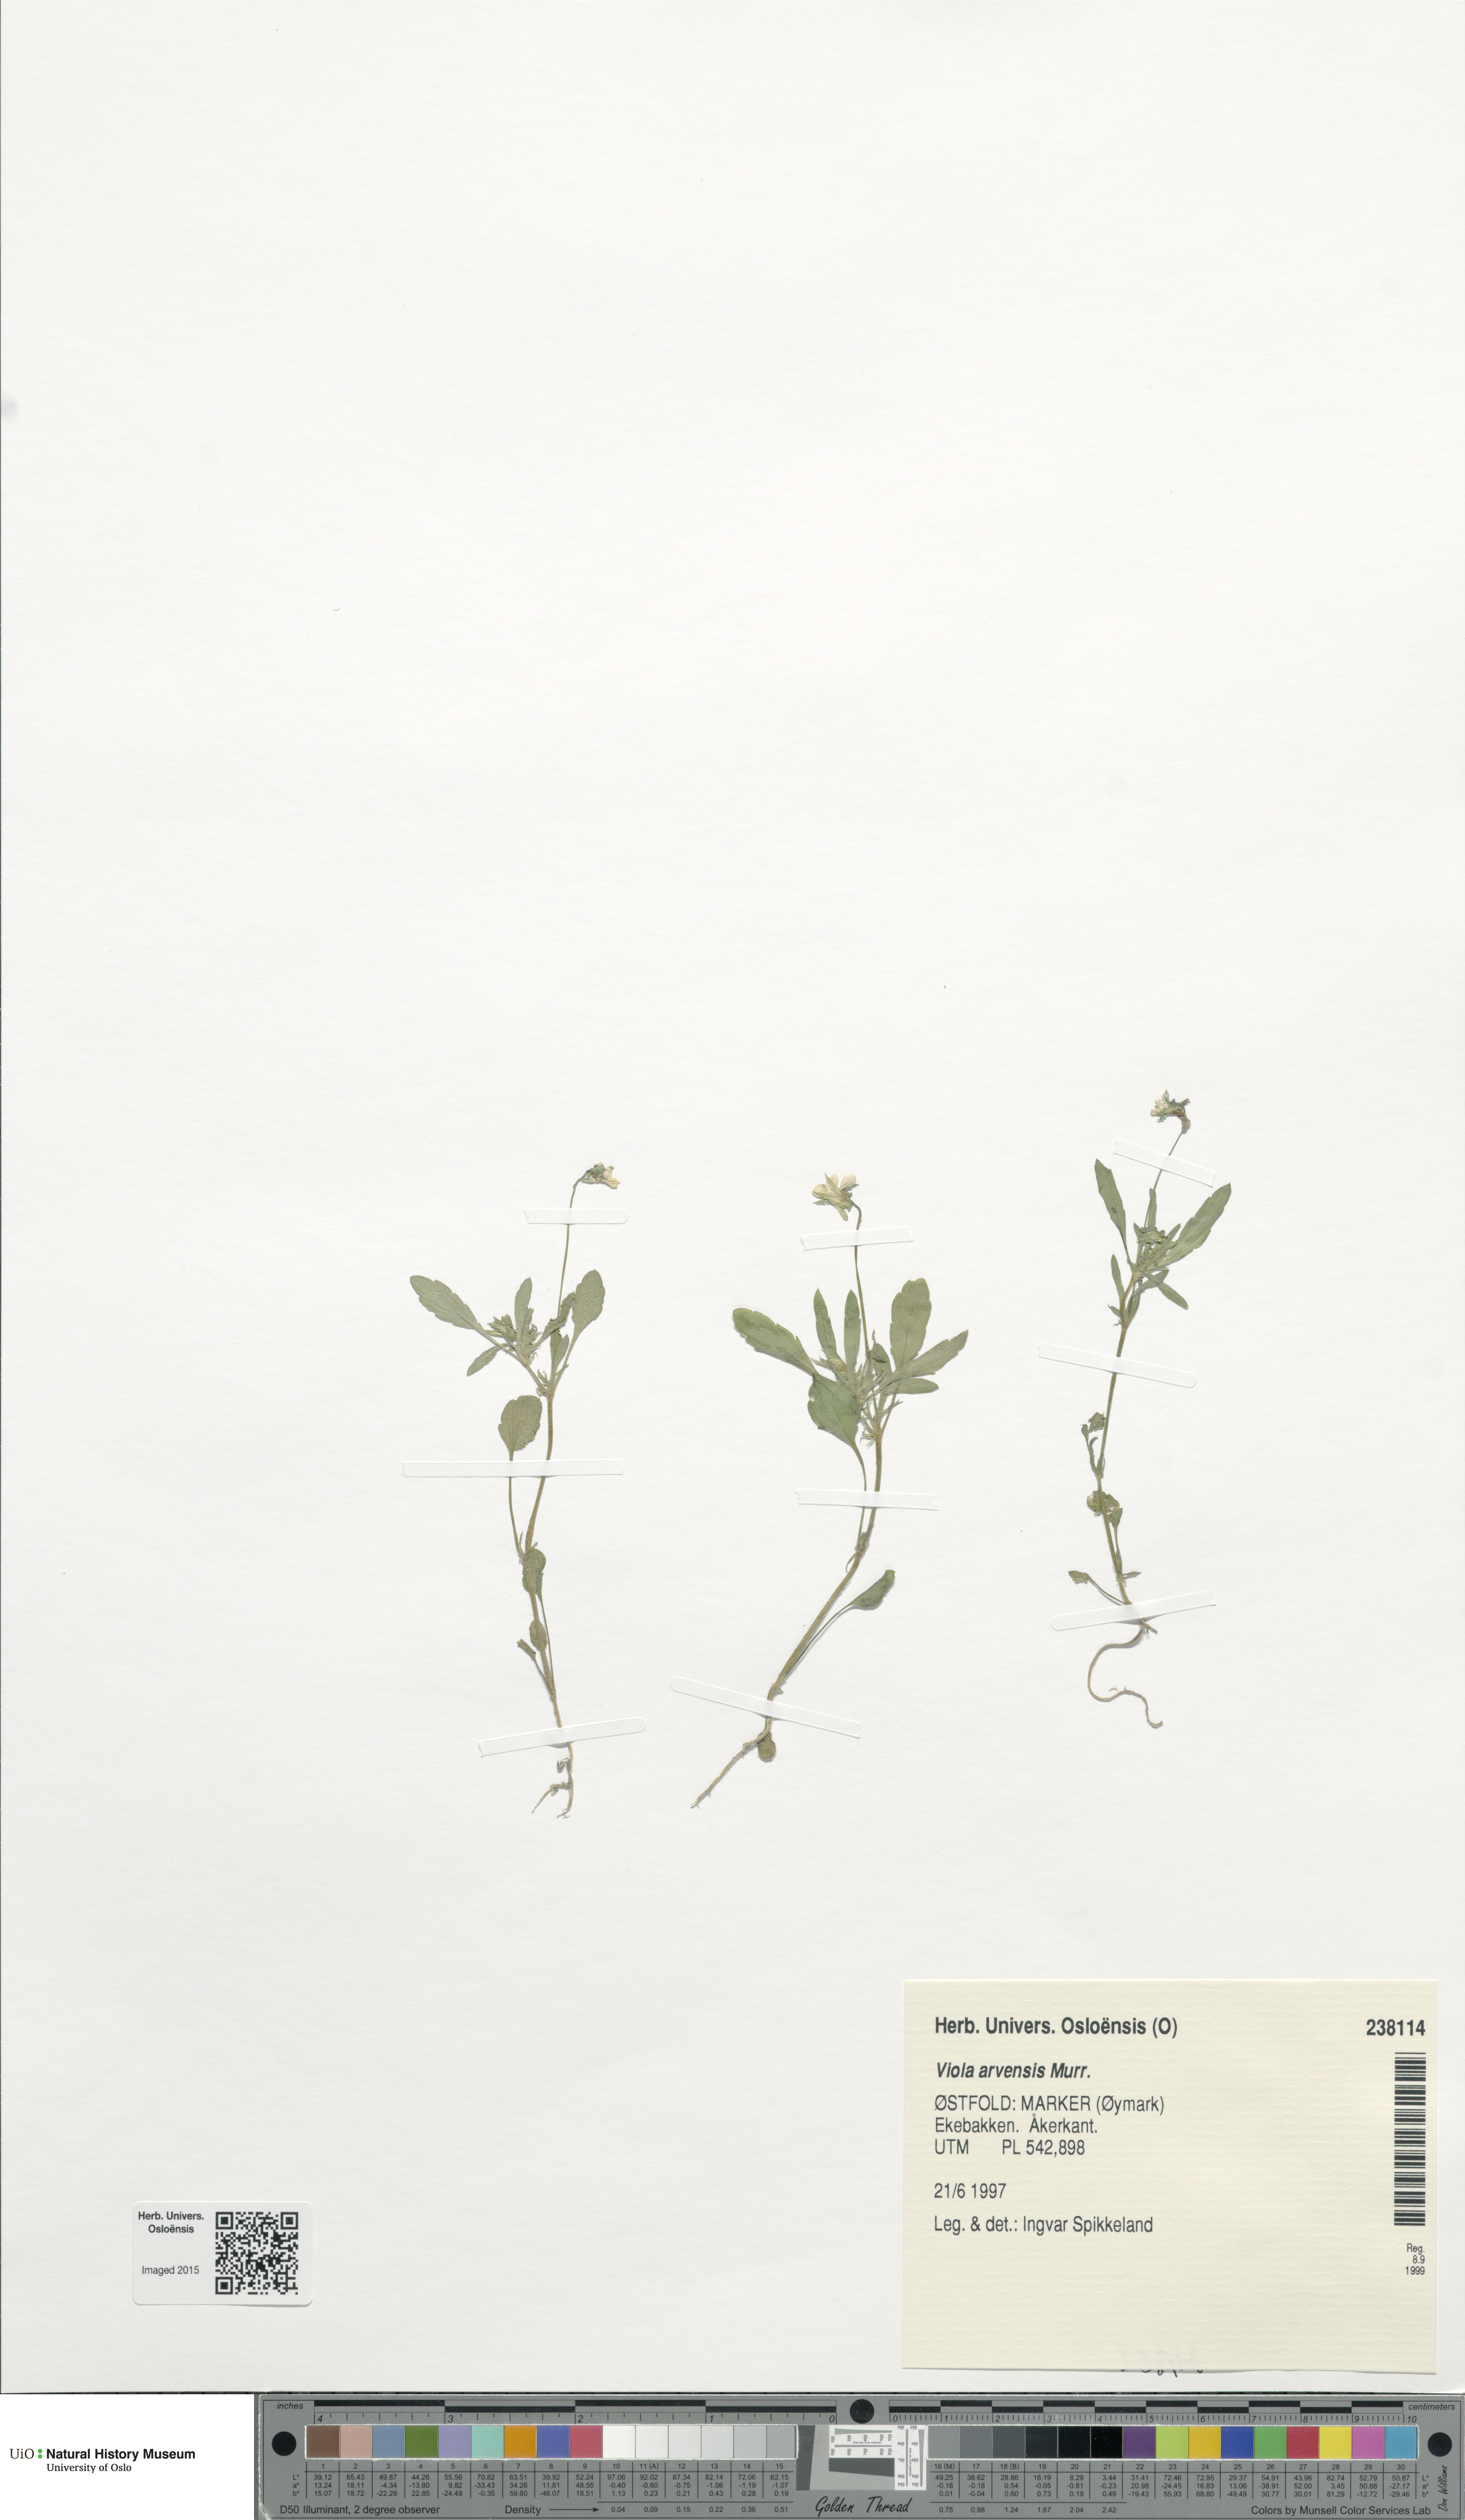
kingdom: Plantae
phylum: Tracheophyta
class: Magnoliopsida
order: Malpighiales
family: Violaceae
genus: Viola
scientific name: Viola arvensis
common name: Field pansy
